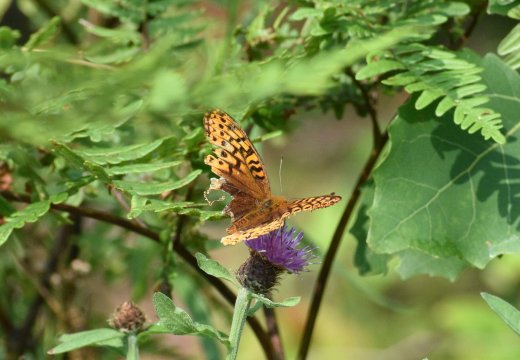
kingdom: Animalia
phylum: Arthropoda
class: Insecta
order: Lepidoptera
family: Nymphalidae
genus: Speyeria
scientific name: Speyeria cybele
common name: Great Spangled Fritillary
